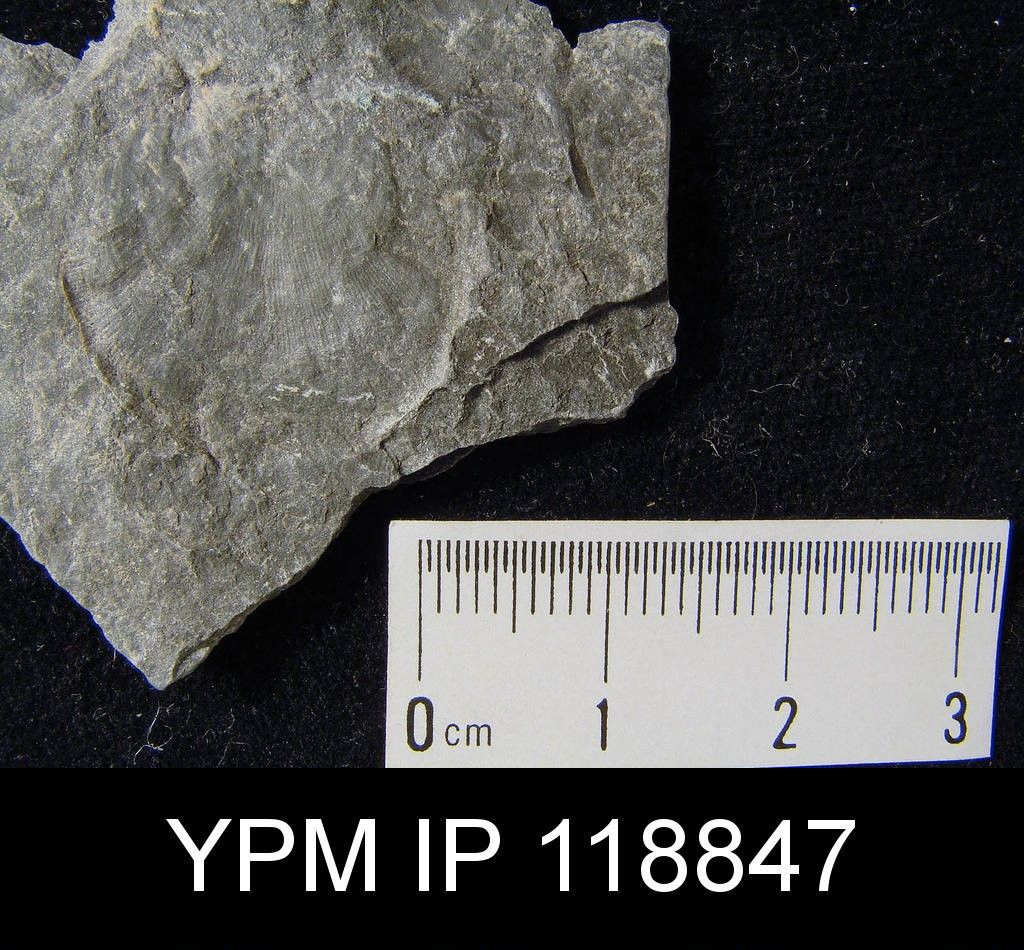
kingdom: Animalia
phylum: Brachiopoda
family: Strophomenidae
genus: Leptaena
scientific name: Leptaena rhomboidalis
